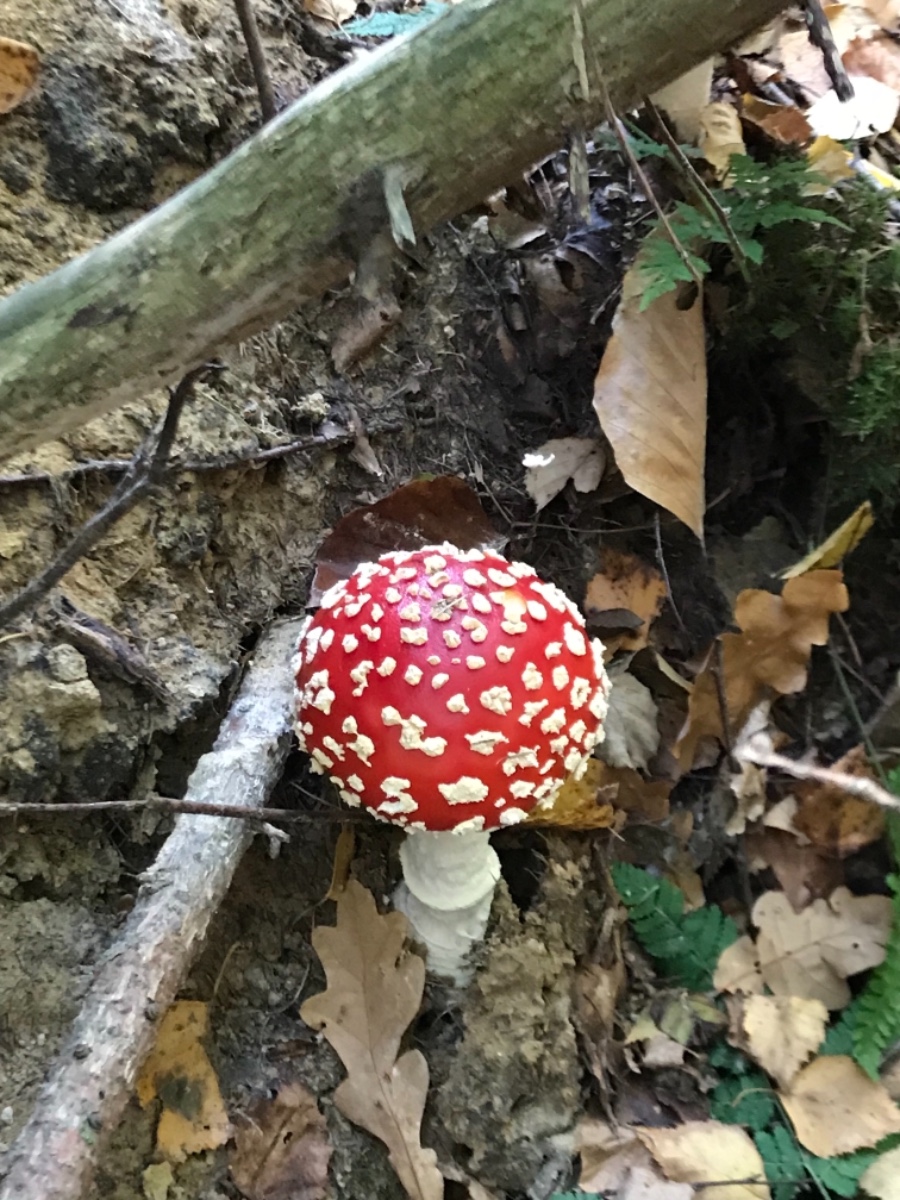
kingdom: Fungi
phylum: Basidiomycota
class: Agaricomycetes
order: Agaricales
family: Amanitaceae
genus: Amanita
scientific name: Amanita muscaria
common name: rød fluesvamp
